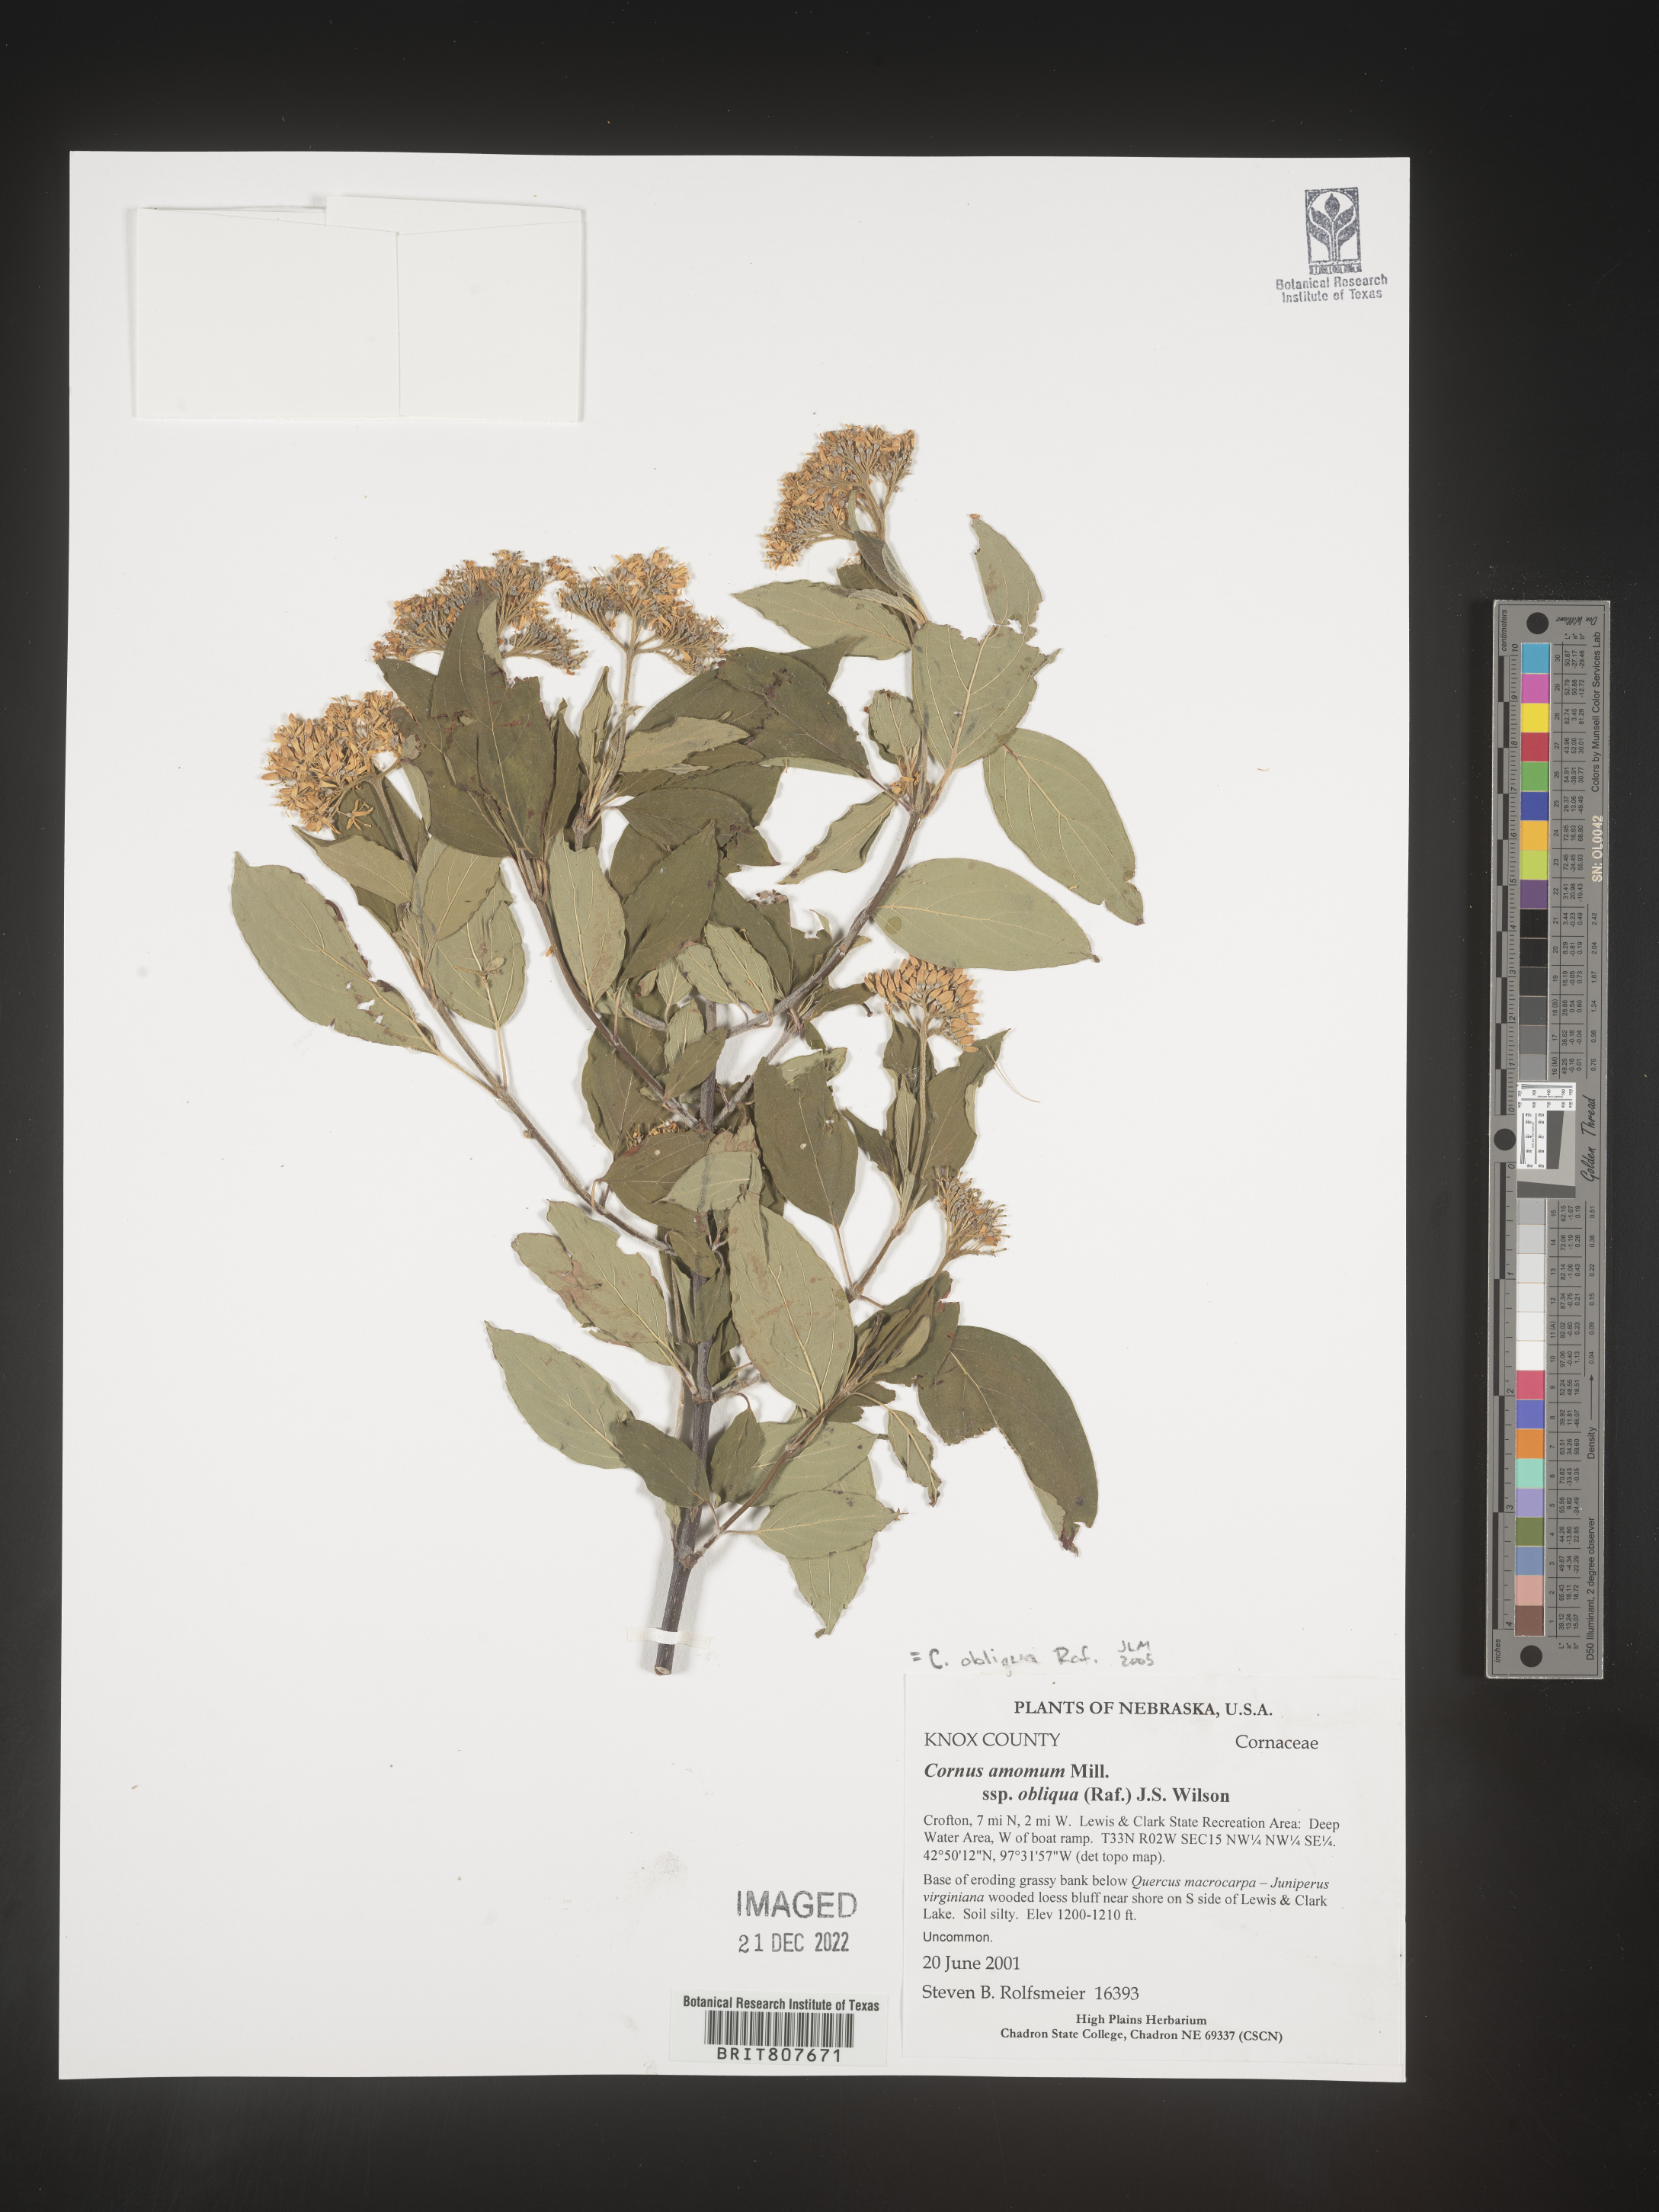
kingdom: Plantae
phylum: Tracheophyta
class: Magnoliopsida
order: Cornales
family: Cornaceae
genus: Cornus
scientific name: Cornus obliqua
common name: Pale dogwood
